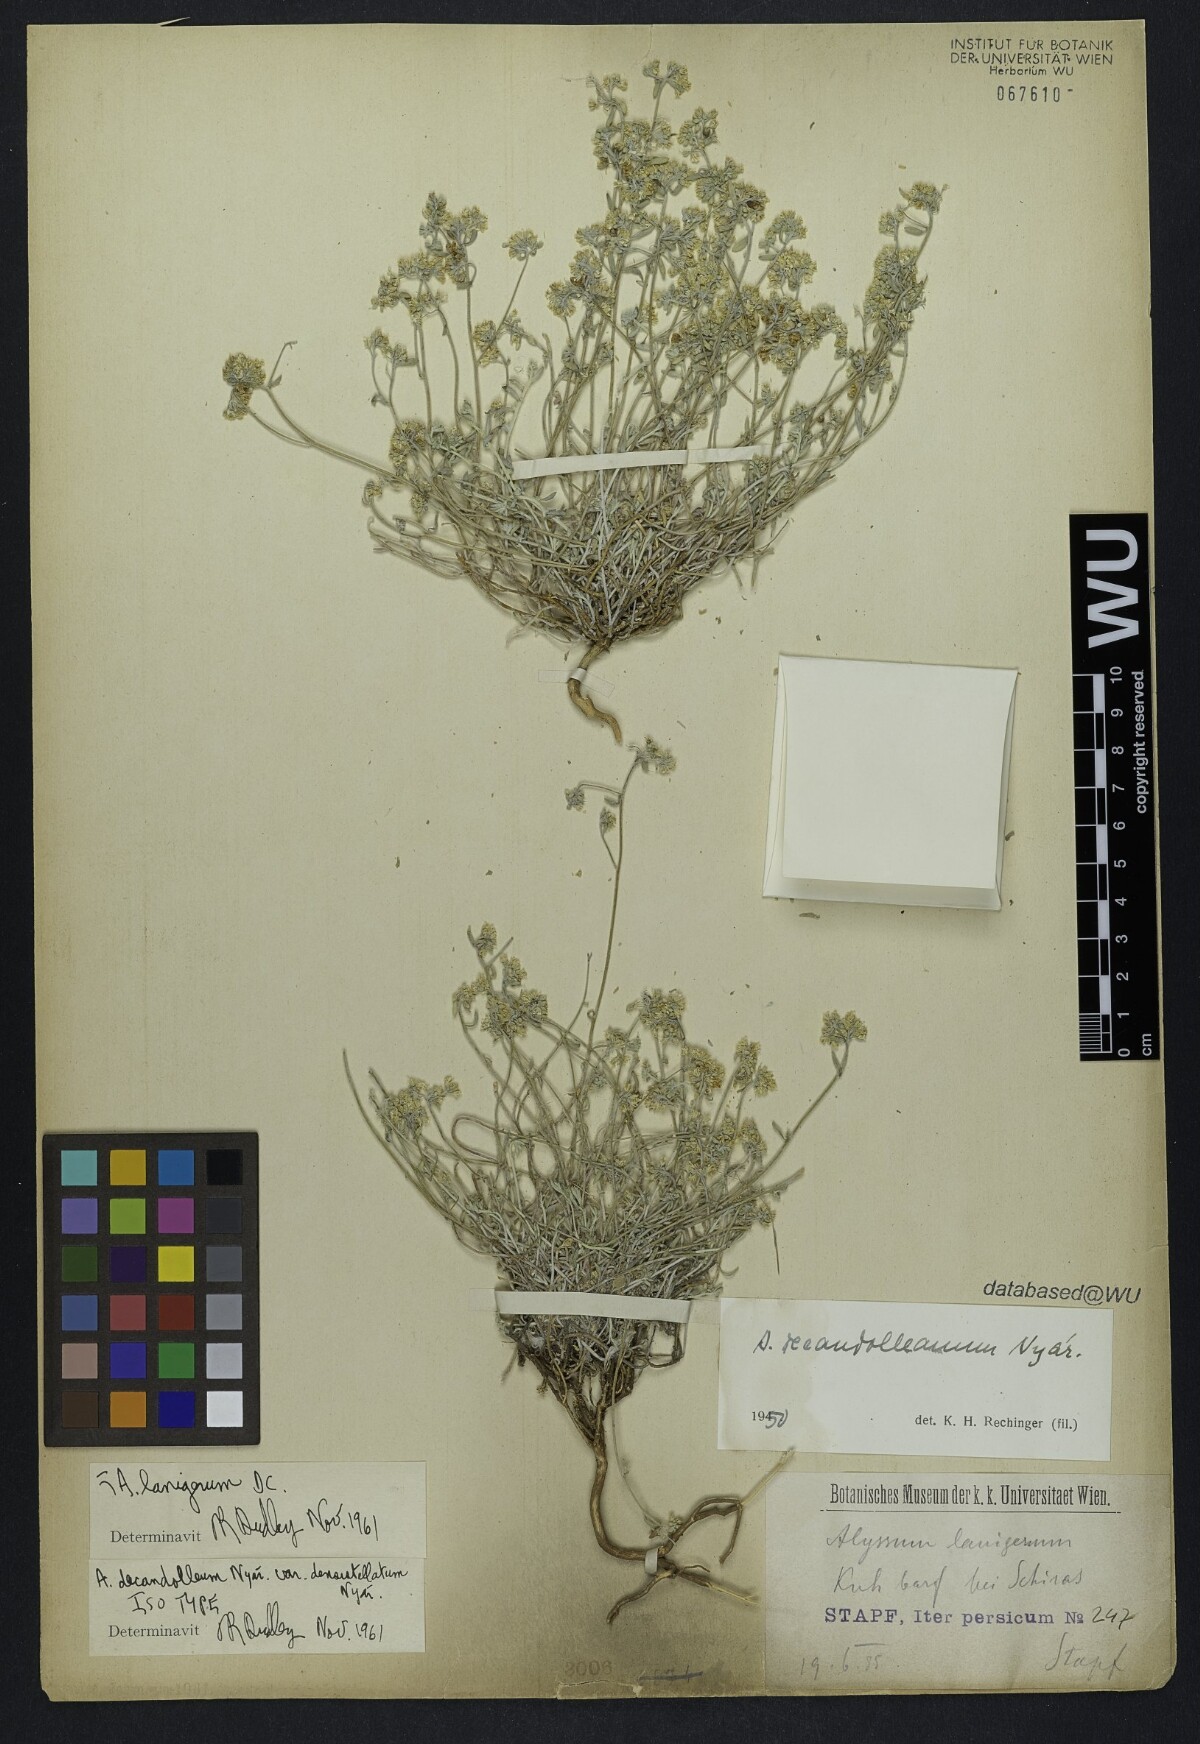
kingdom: Plantae
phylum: Tracheophyta
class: Magnoliopsida
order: Brassicales
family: Brassicaceae
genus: Odontarrhena
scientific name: Odontarrhena tortuosa
